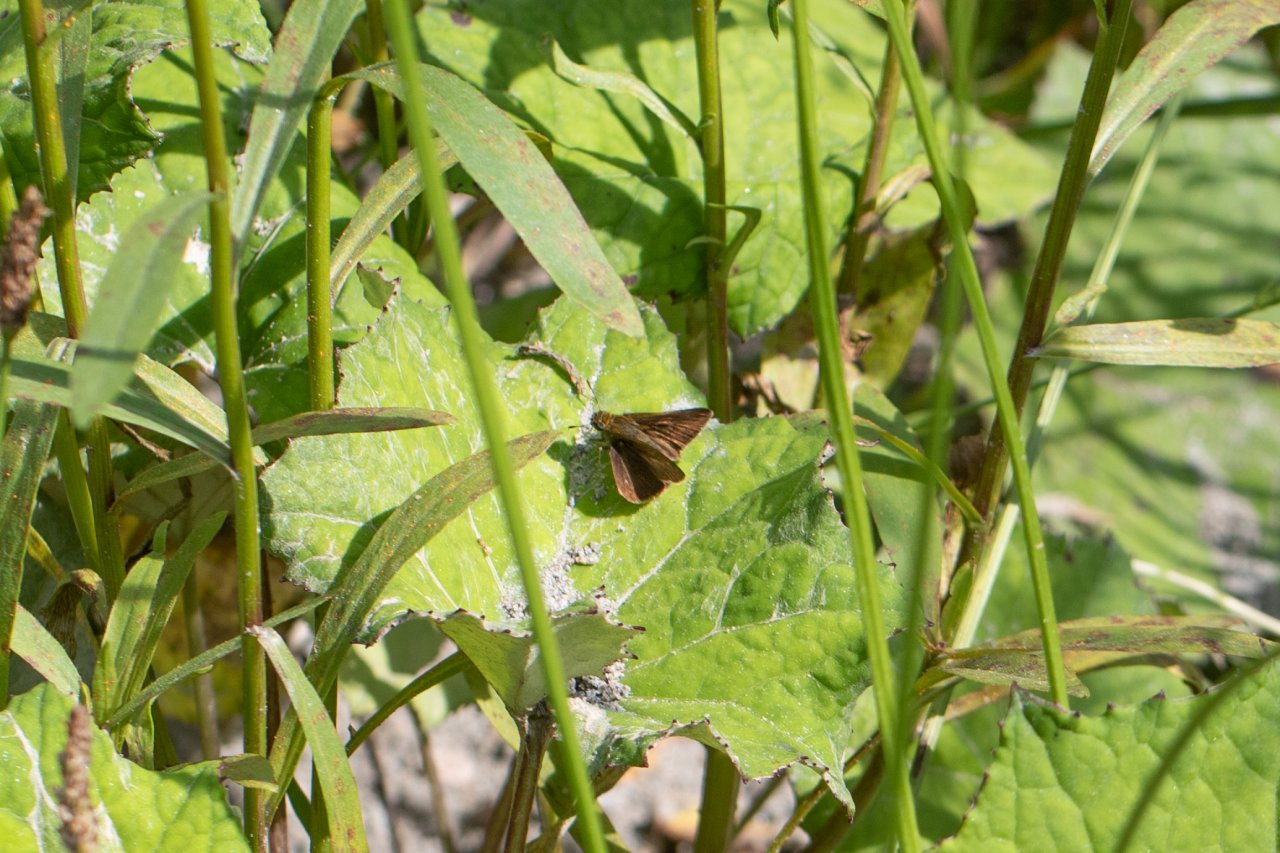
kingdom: Animalia
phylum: Arthropoda
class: Insecta
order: Lepidoptera
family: Hesperiidae
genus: Euphyes
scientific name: Euphyes vestris
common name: Dun Skipper
